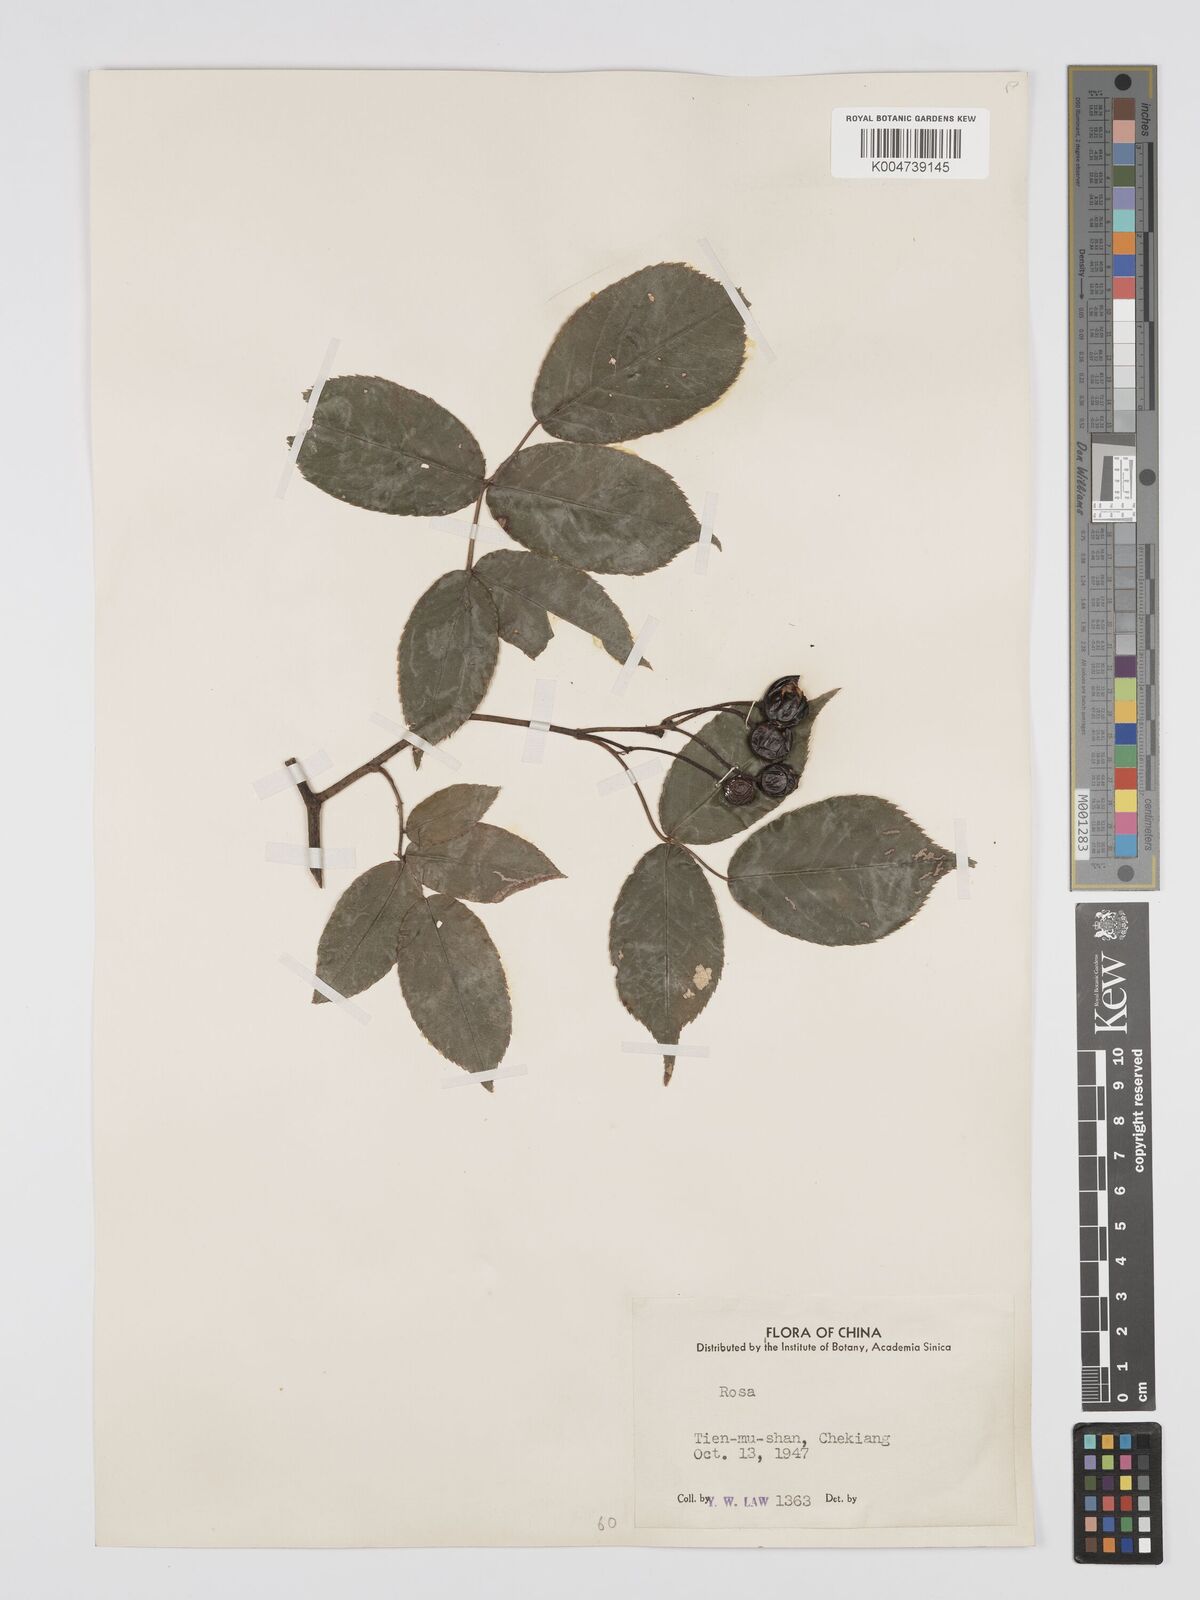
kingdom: Plantae
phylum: Tracheophyta
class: Magnoliopsida
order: Rosales
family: Rosaceae
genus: Rosa
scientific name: Rosa henryi
